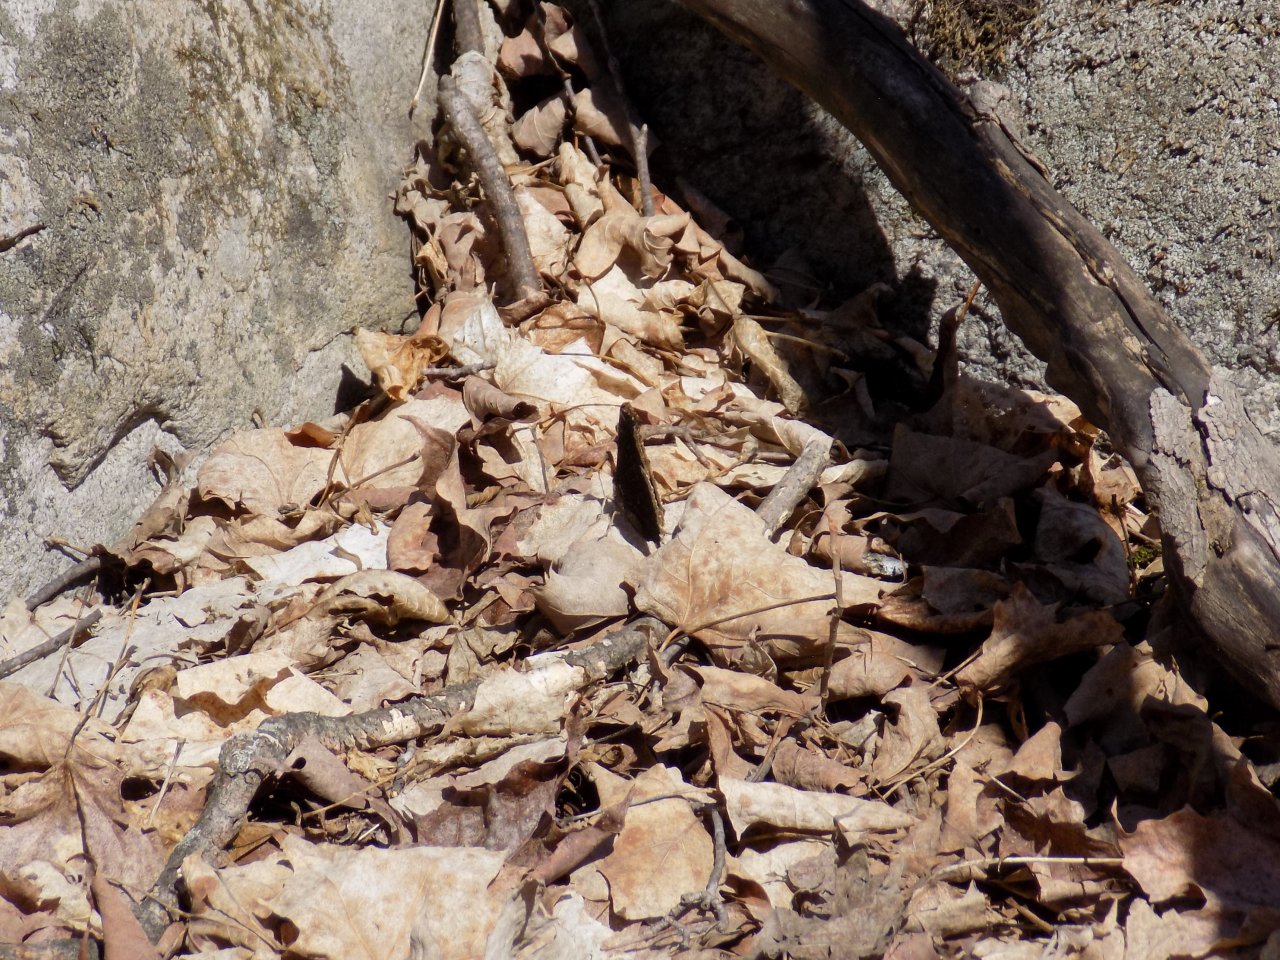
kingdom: Animalia
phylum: Arthropoda
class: Insecta
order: Lepidoptera
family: Nymphalidae
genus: Nymphalis
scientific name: Nymphalis antiopa
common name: Mourning Cloak
